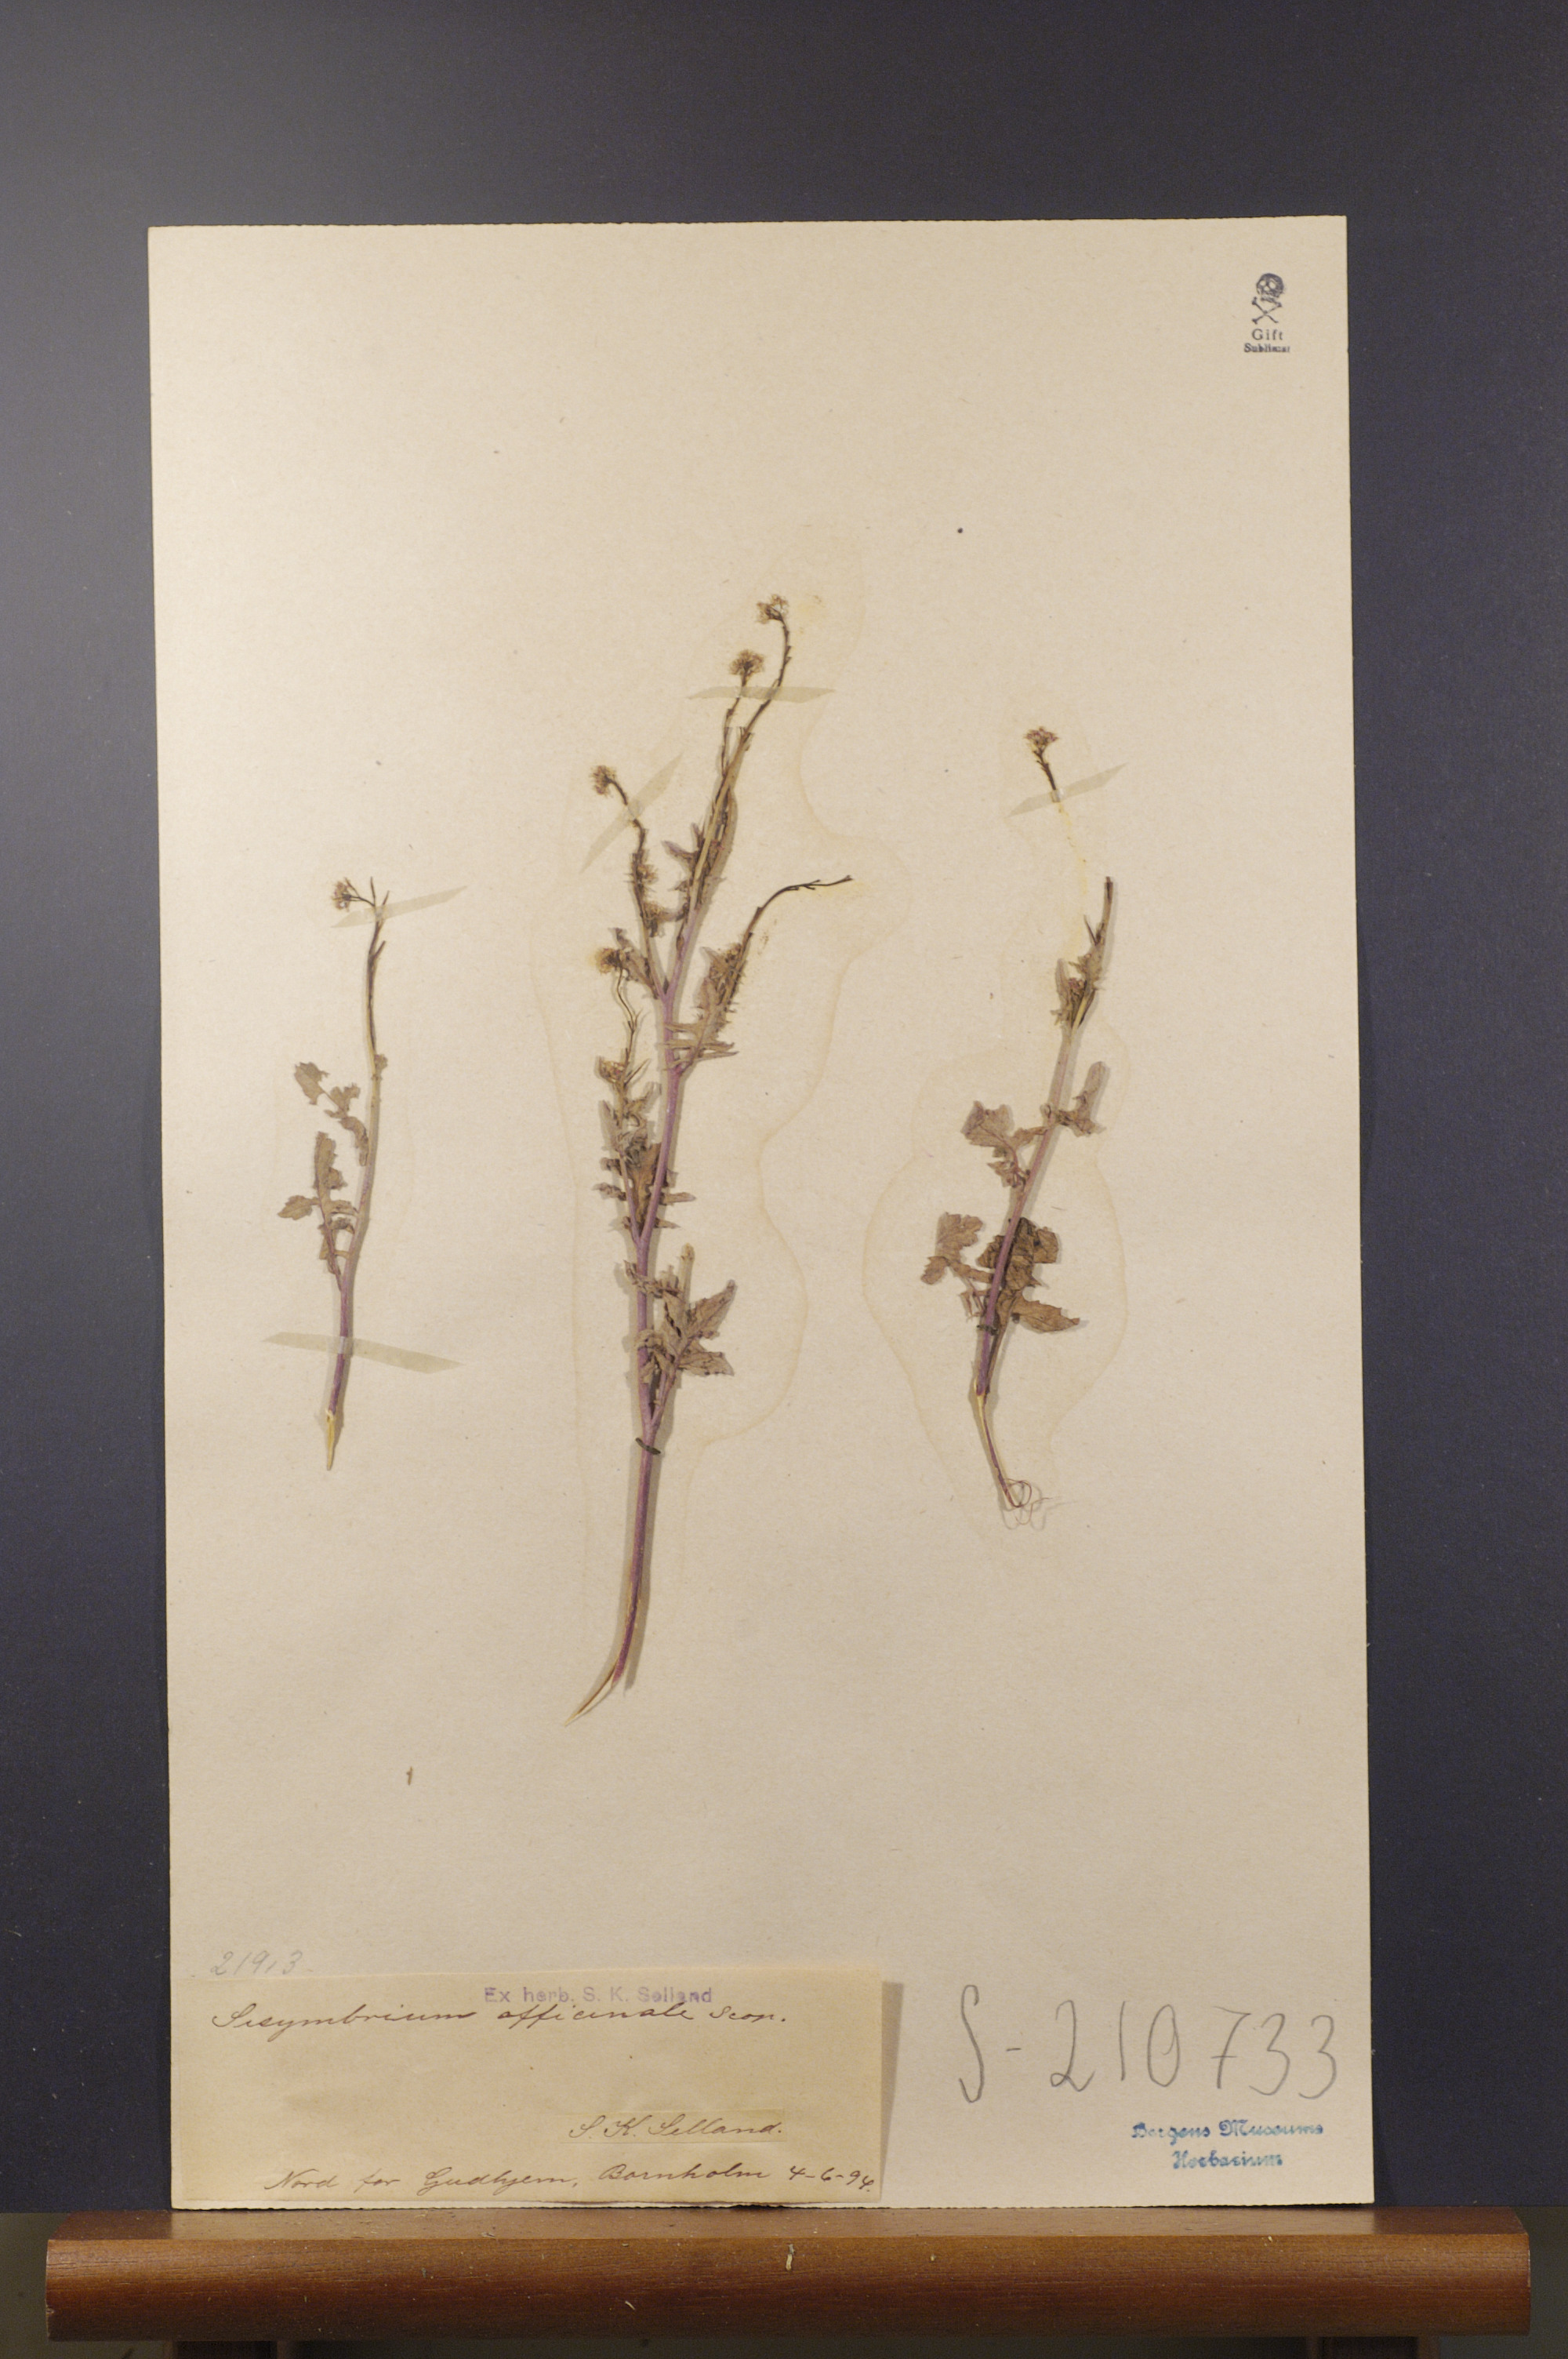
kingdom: Plantae
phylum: Tracheophyta
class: Magnoliopsida
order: Brassicales
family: Brassicaceae
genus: Sisymbrium
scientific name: Sisymbrium officinale
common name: Hedge mustard
